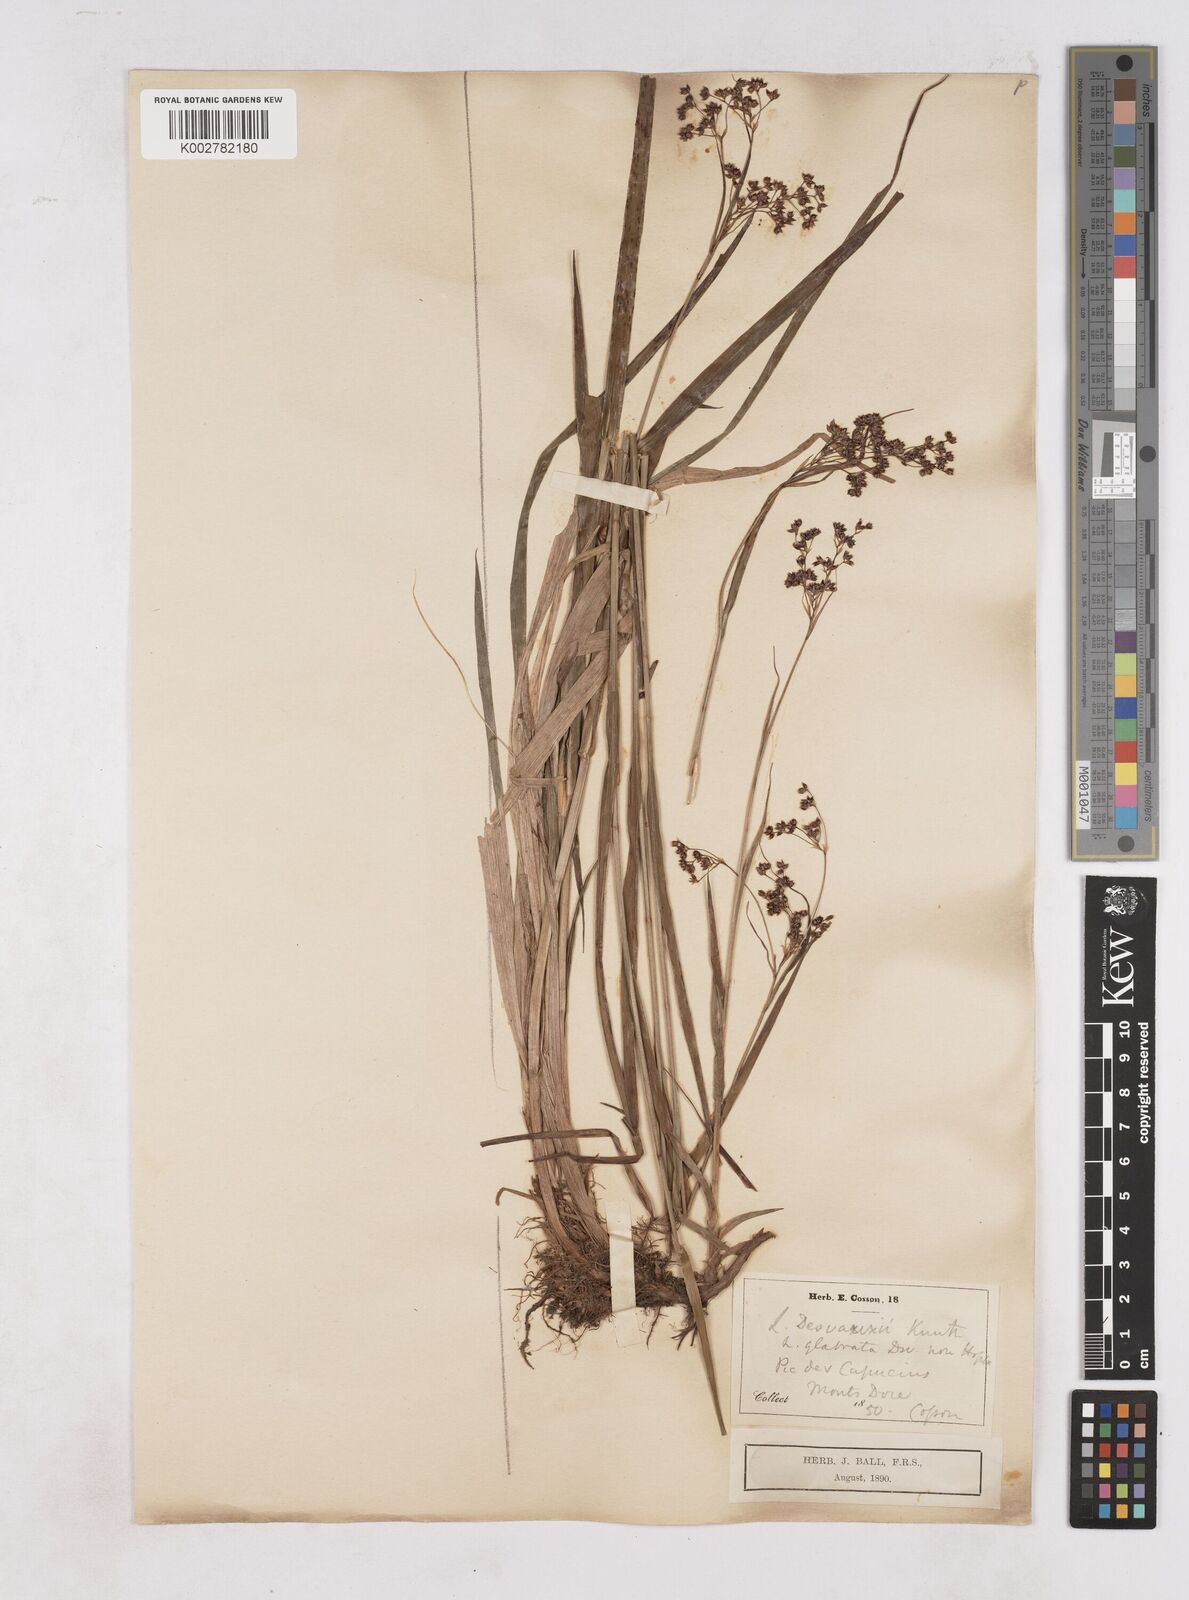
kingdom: Plantae
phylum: Tracheophyta
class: Liliopsida
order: Poales
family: Juncaceae
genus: Luzula
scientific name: Luzula glabrata
